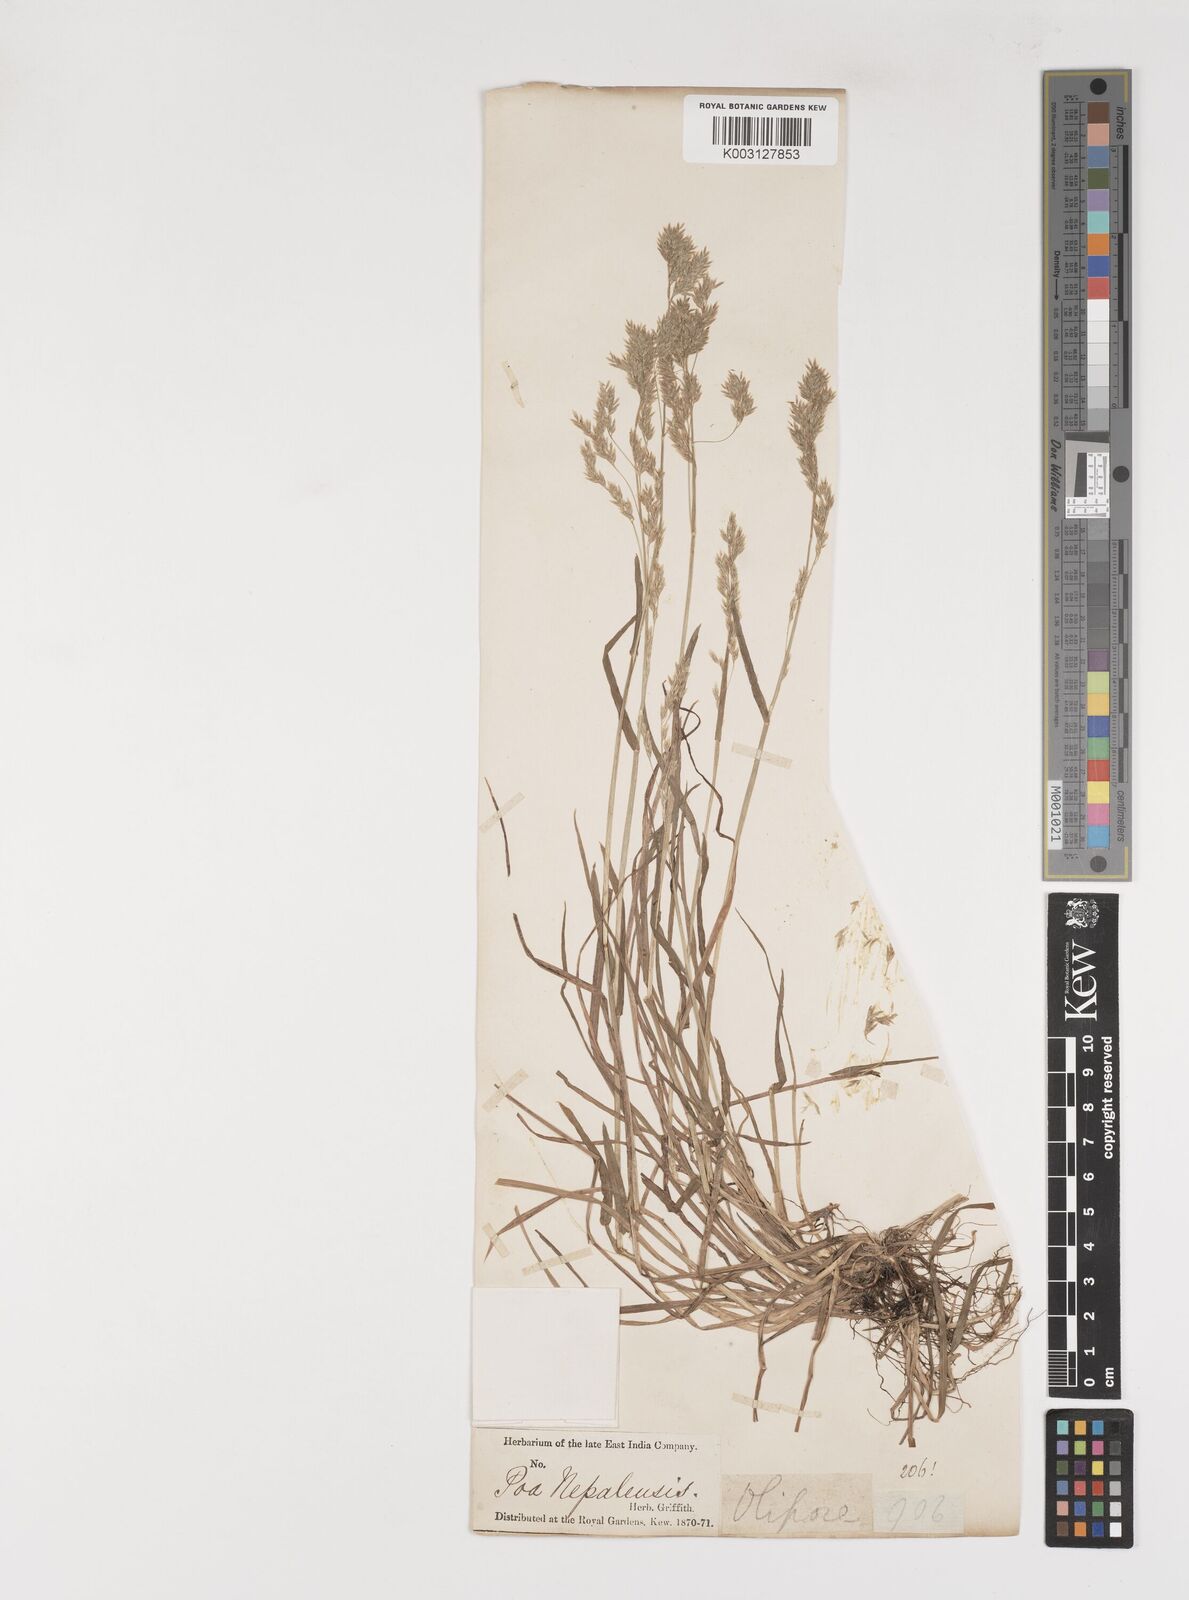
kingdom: Plantae
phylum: Tracheophyta
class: Liliopsida
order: Poales
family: Poaceae
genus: Poa
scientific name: Poa nepalensis
